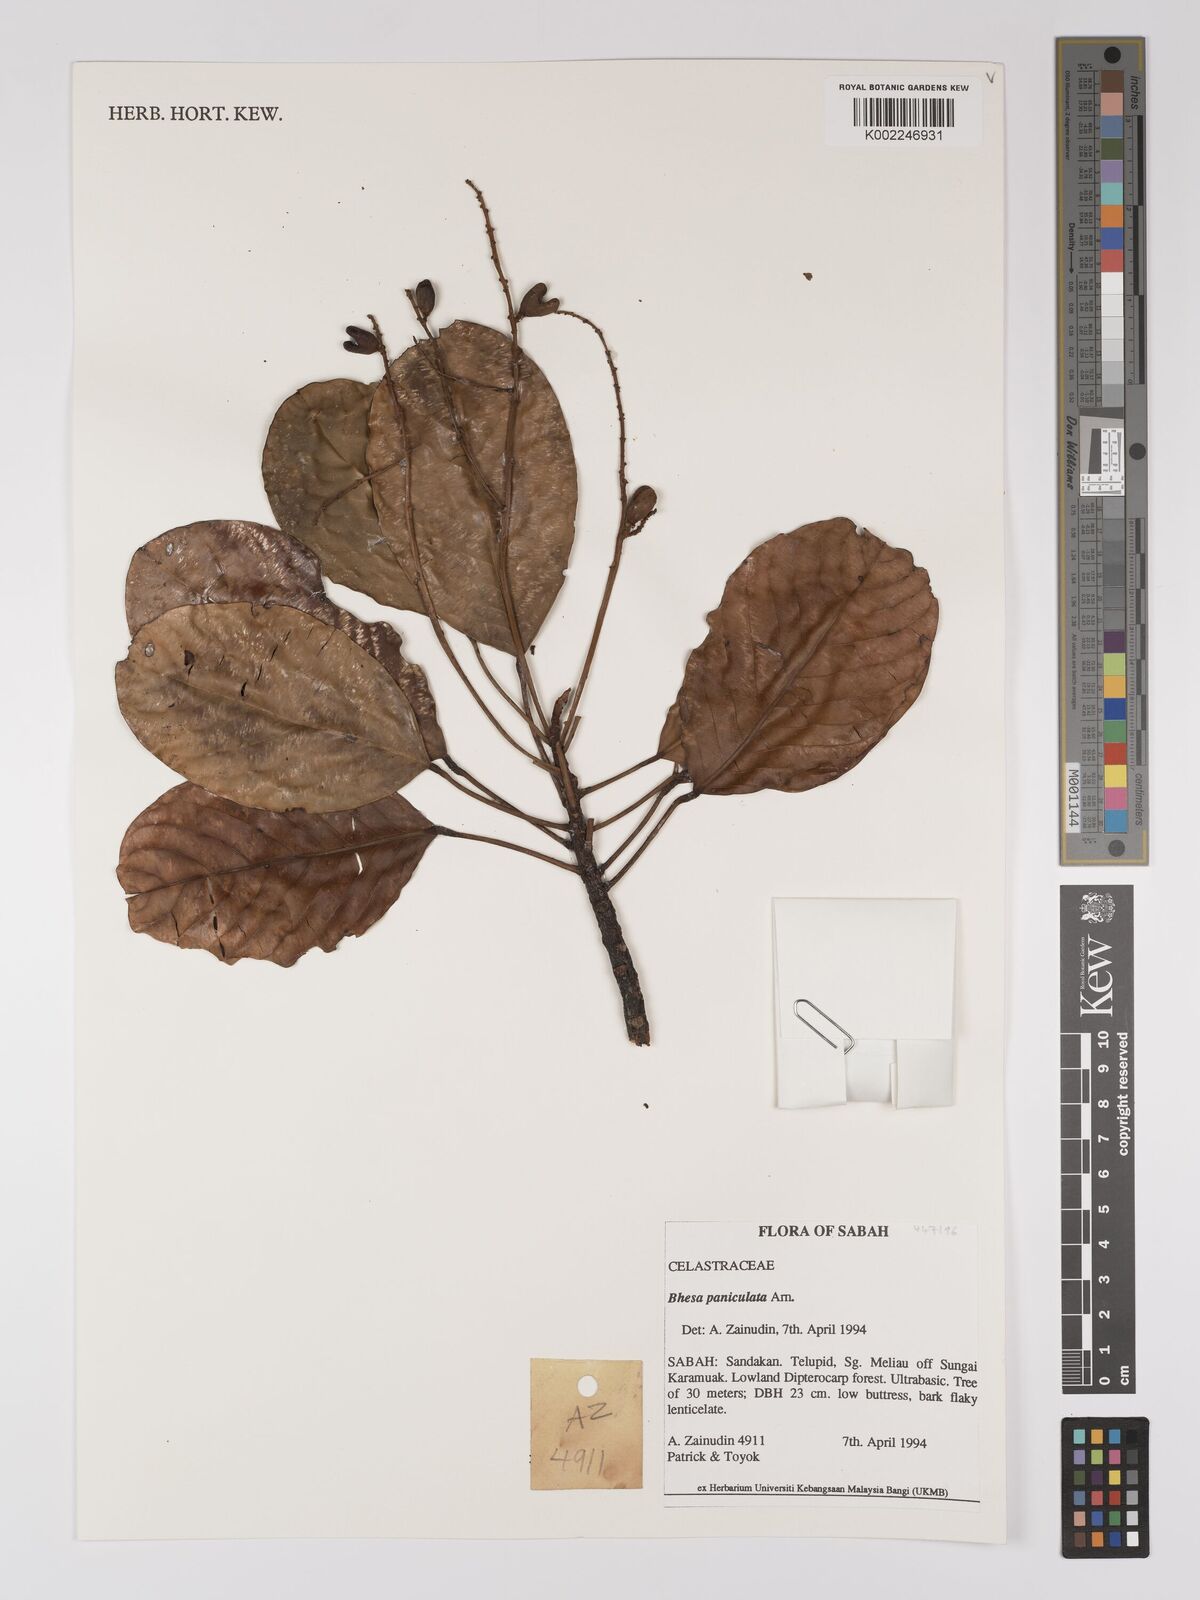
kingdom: Plantae
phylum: Tracheophyta
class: Magnoliopsida
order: Malpighiales
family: Centroplacaceae
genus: Bhesa
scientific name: Bhesa paniculata
